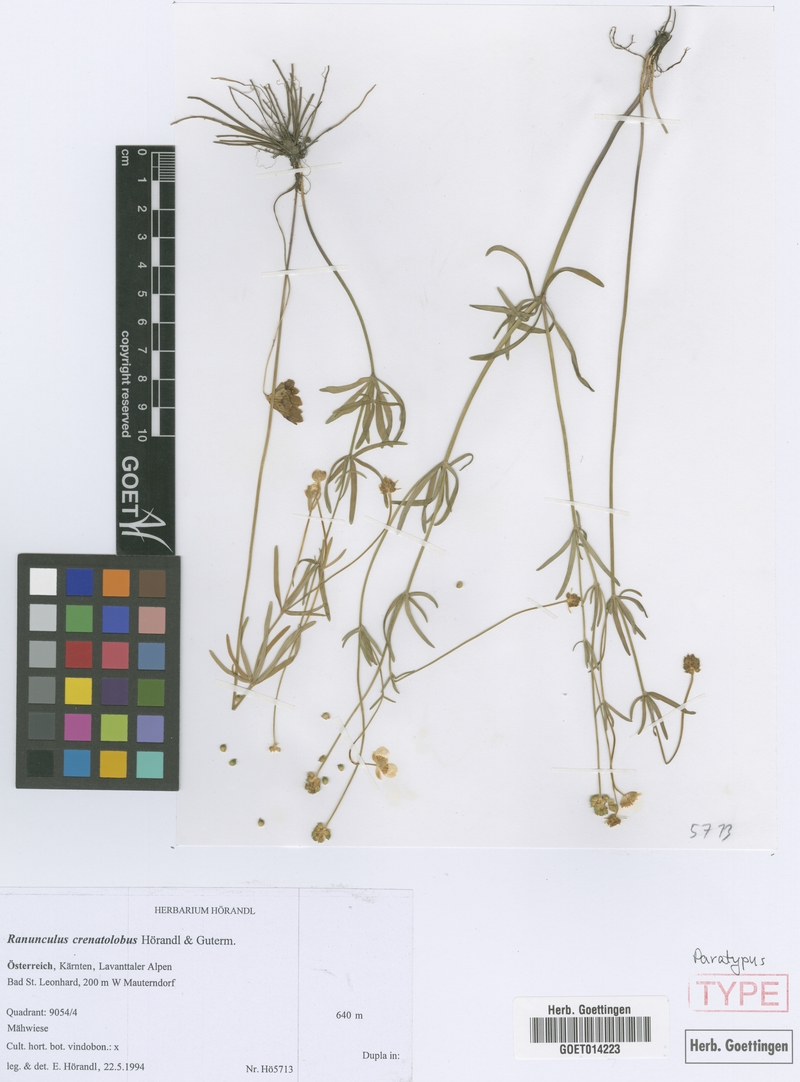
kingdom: Plantae
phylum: Tracheophyta
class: Magnoliopsida
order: Ranunculales
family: Ranunculaceae
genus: Ranunculus
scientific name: Ranunculus crenatolobus
